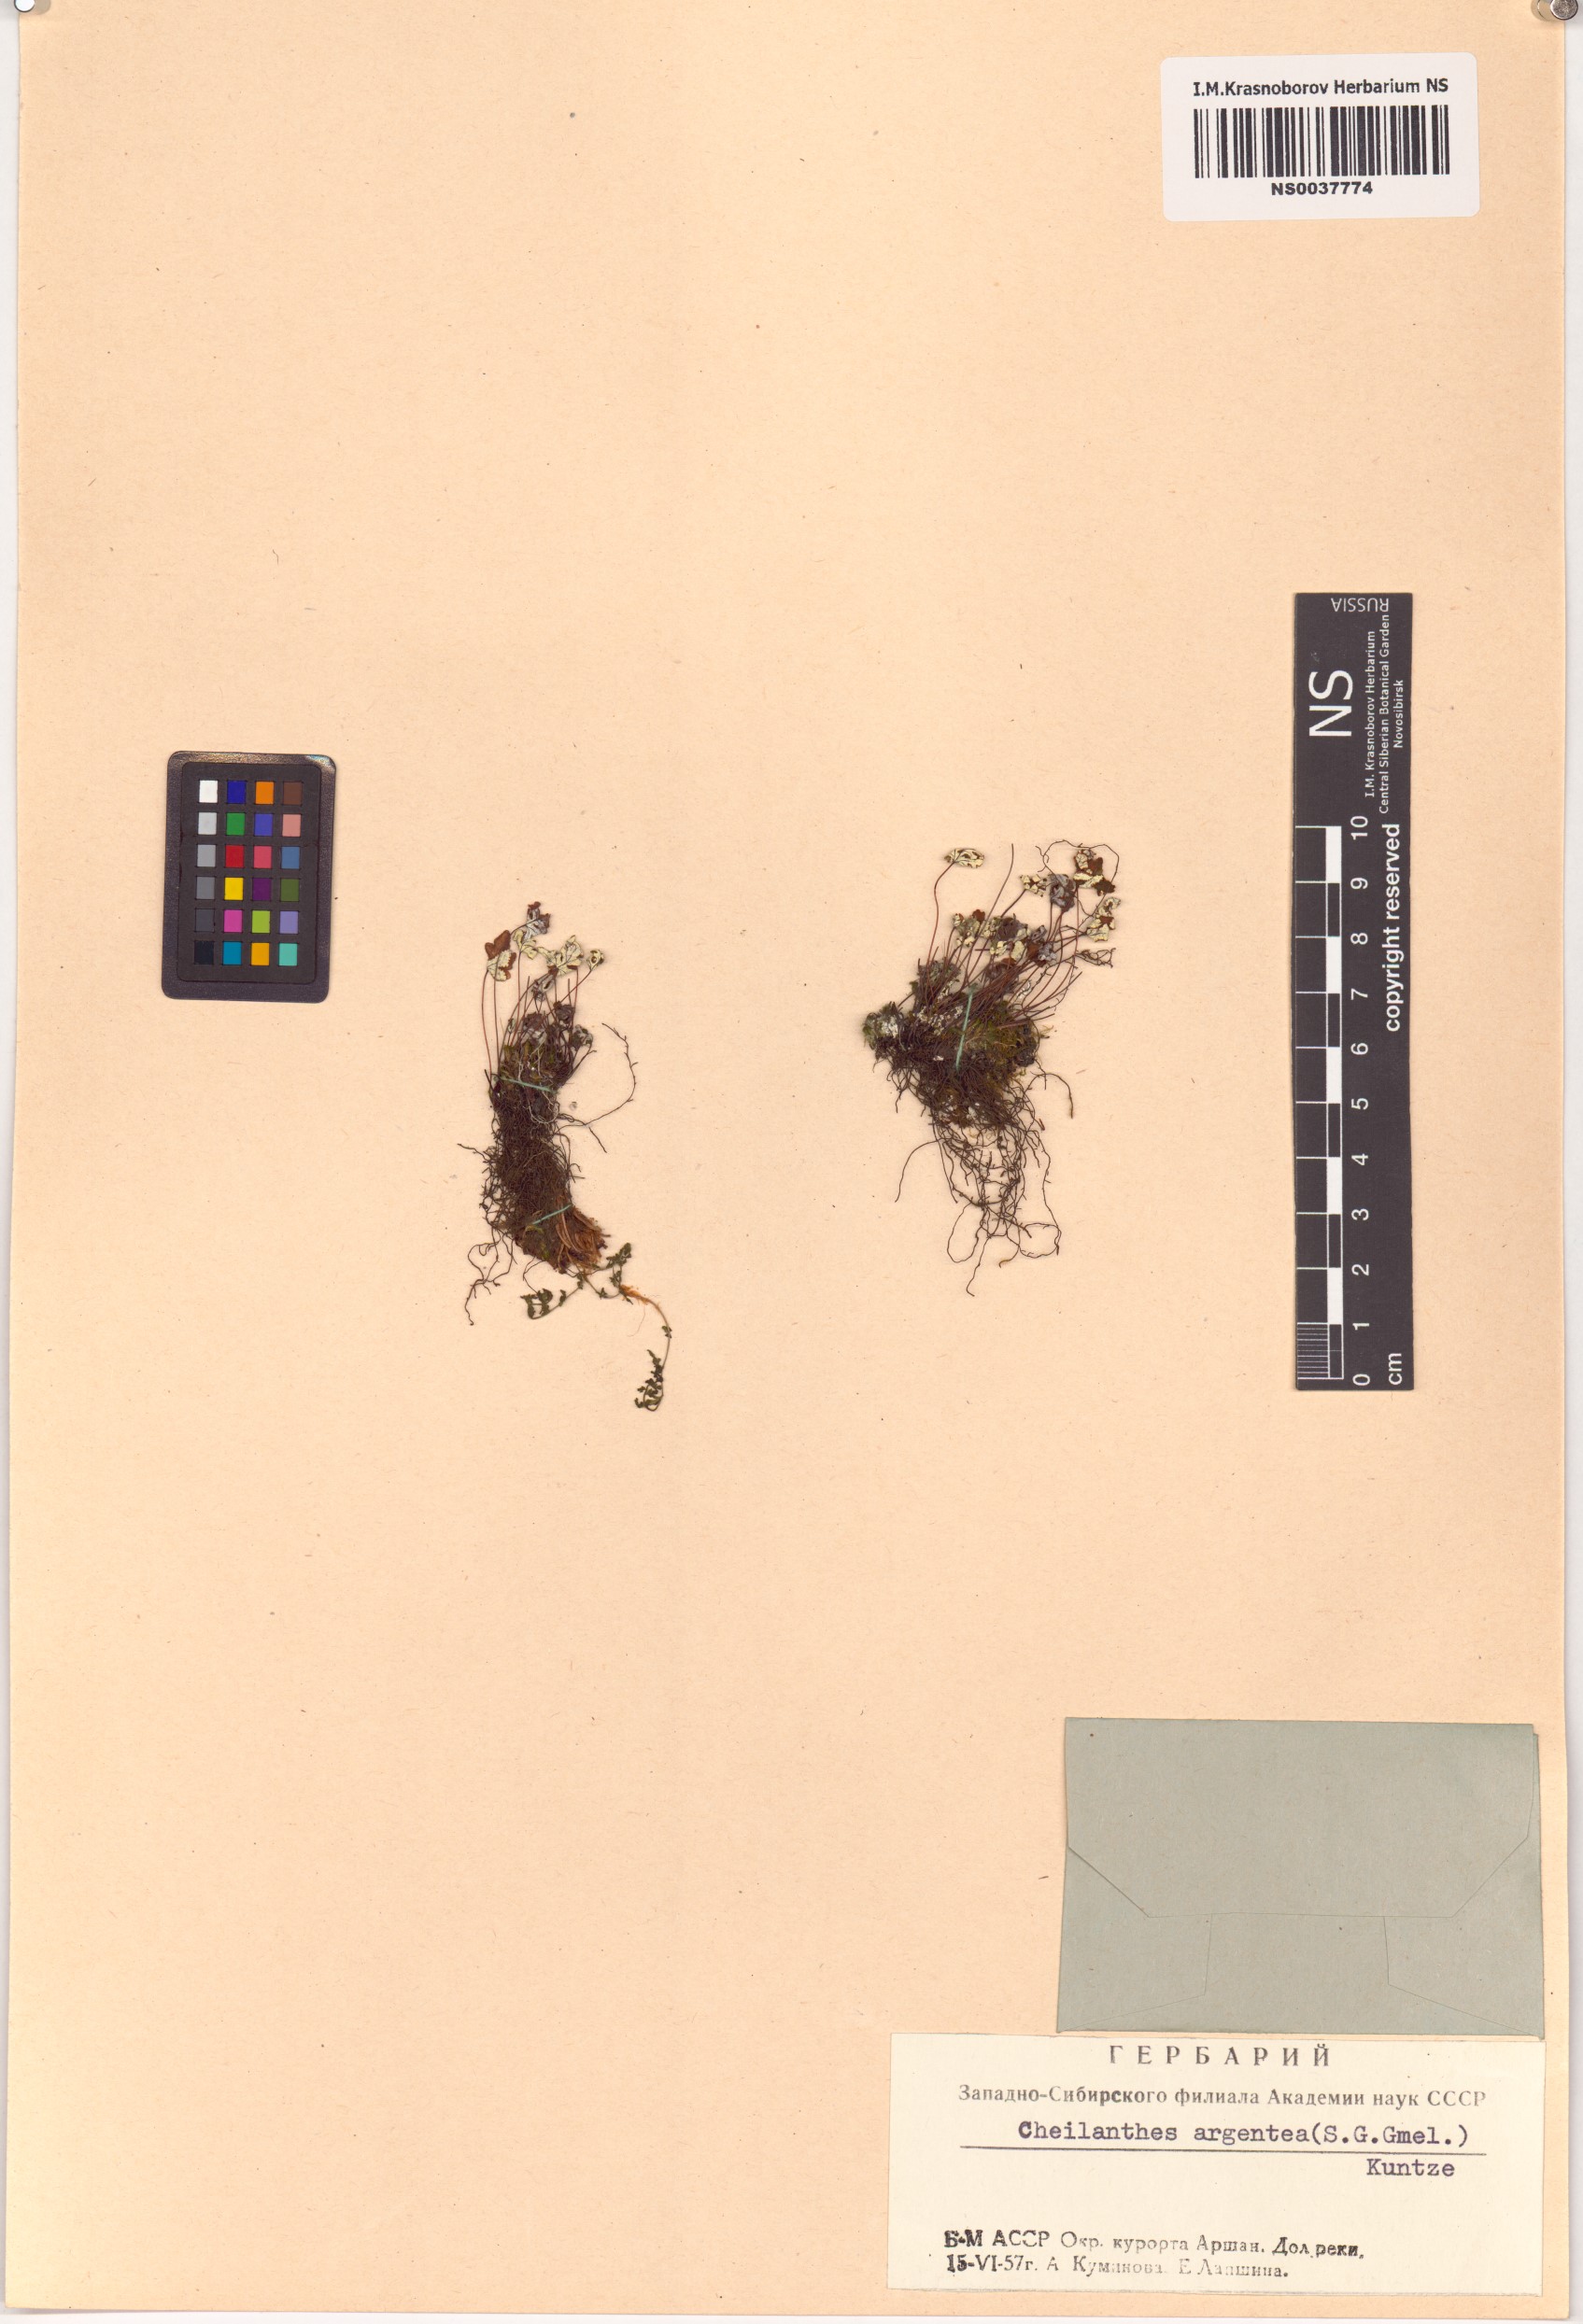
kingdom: Plantae
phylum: Tracheophyta
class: Polypodiopsida
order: Polypodiales
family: Pteridaceae
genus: Aleuritopteris
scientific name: Aleuritopteris argentea
